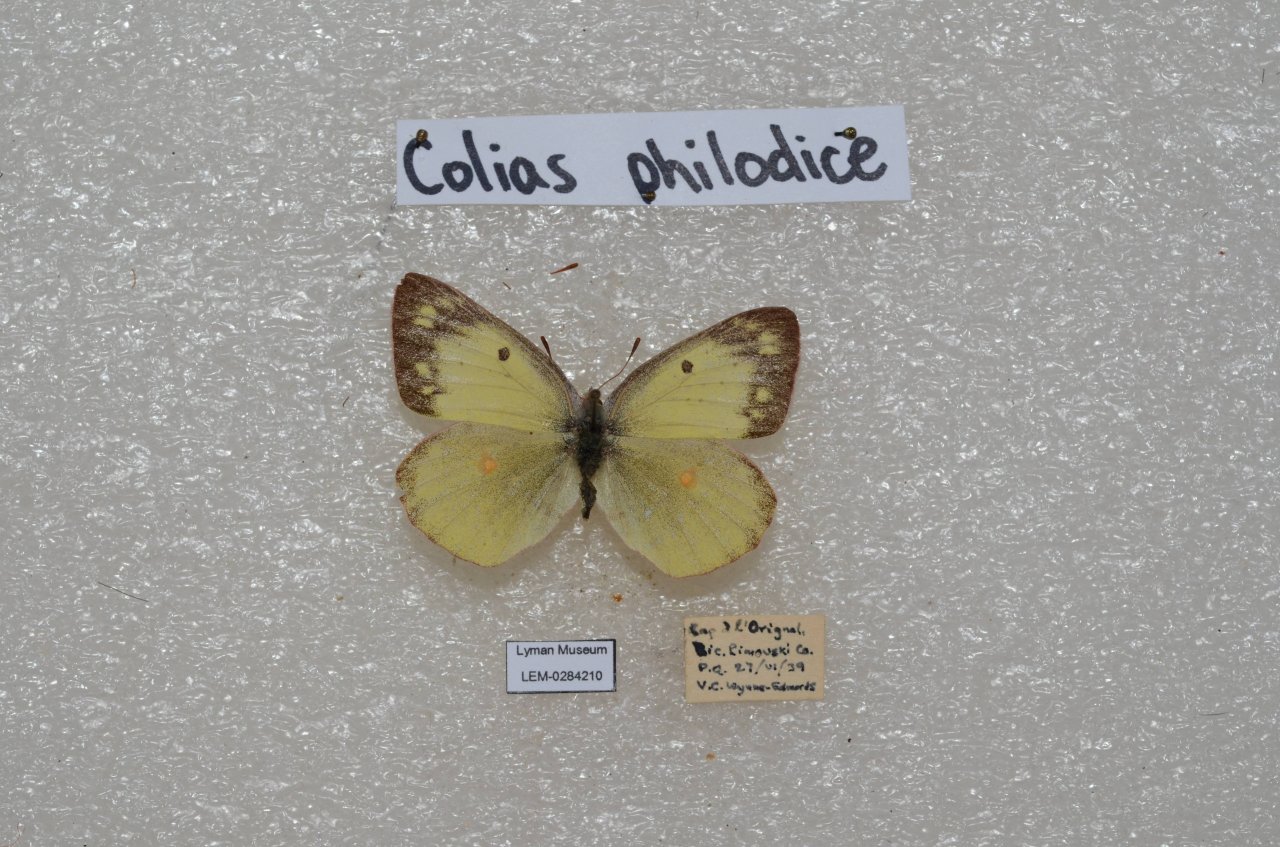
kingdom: Animalia
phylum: Arthropoda
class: Insecta
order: Lepidoptera
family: Pieridae
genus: Colias
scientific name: Colias philodice
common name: Clouded Sulphur
